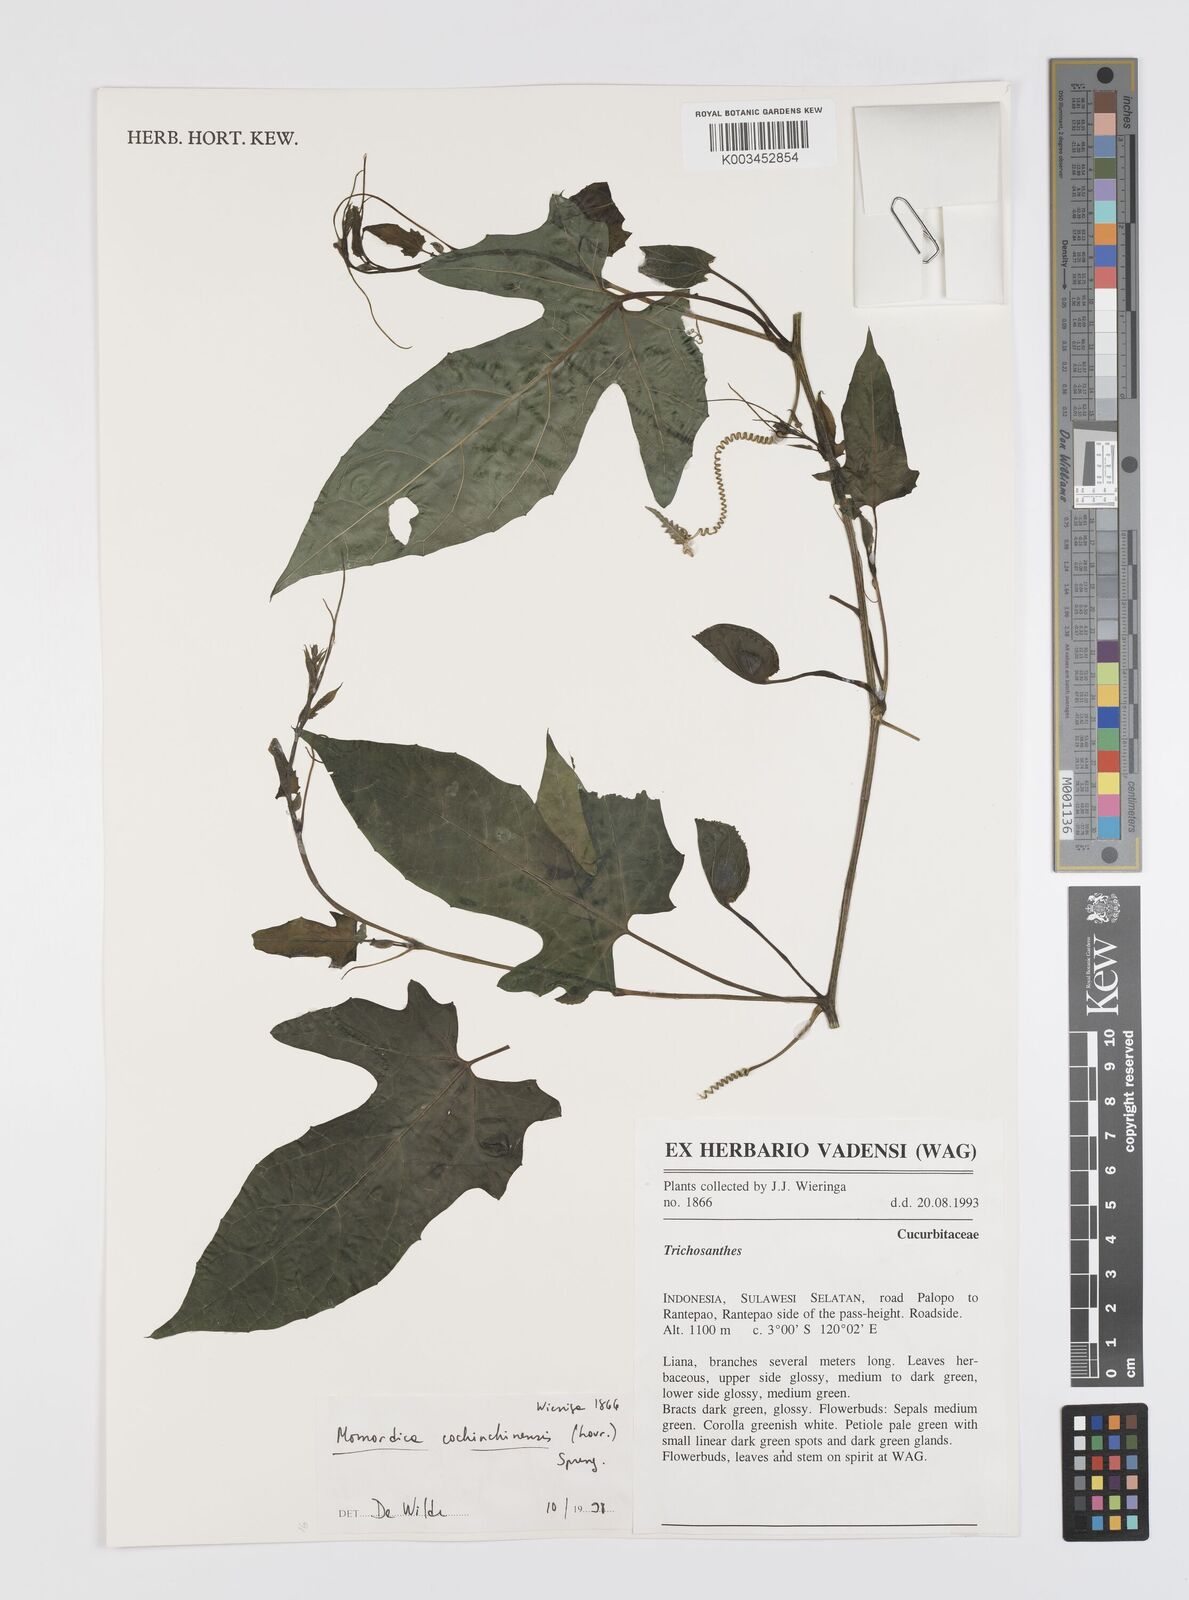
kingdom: Plantae
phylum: Tracheophyta
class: Magnoliopsida
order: Cucurbitales
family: Cucurbitaceae
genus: Momordica
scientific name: Momordica cochinchinensis
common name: Chinese bitter-cucumber
